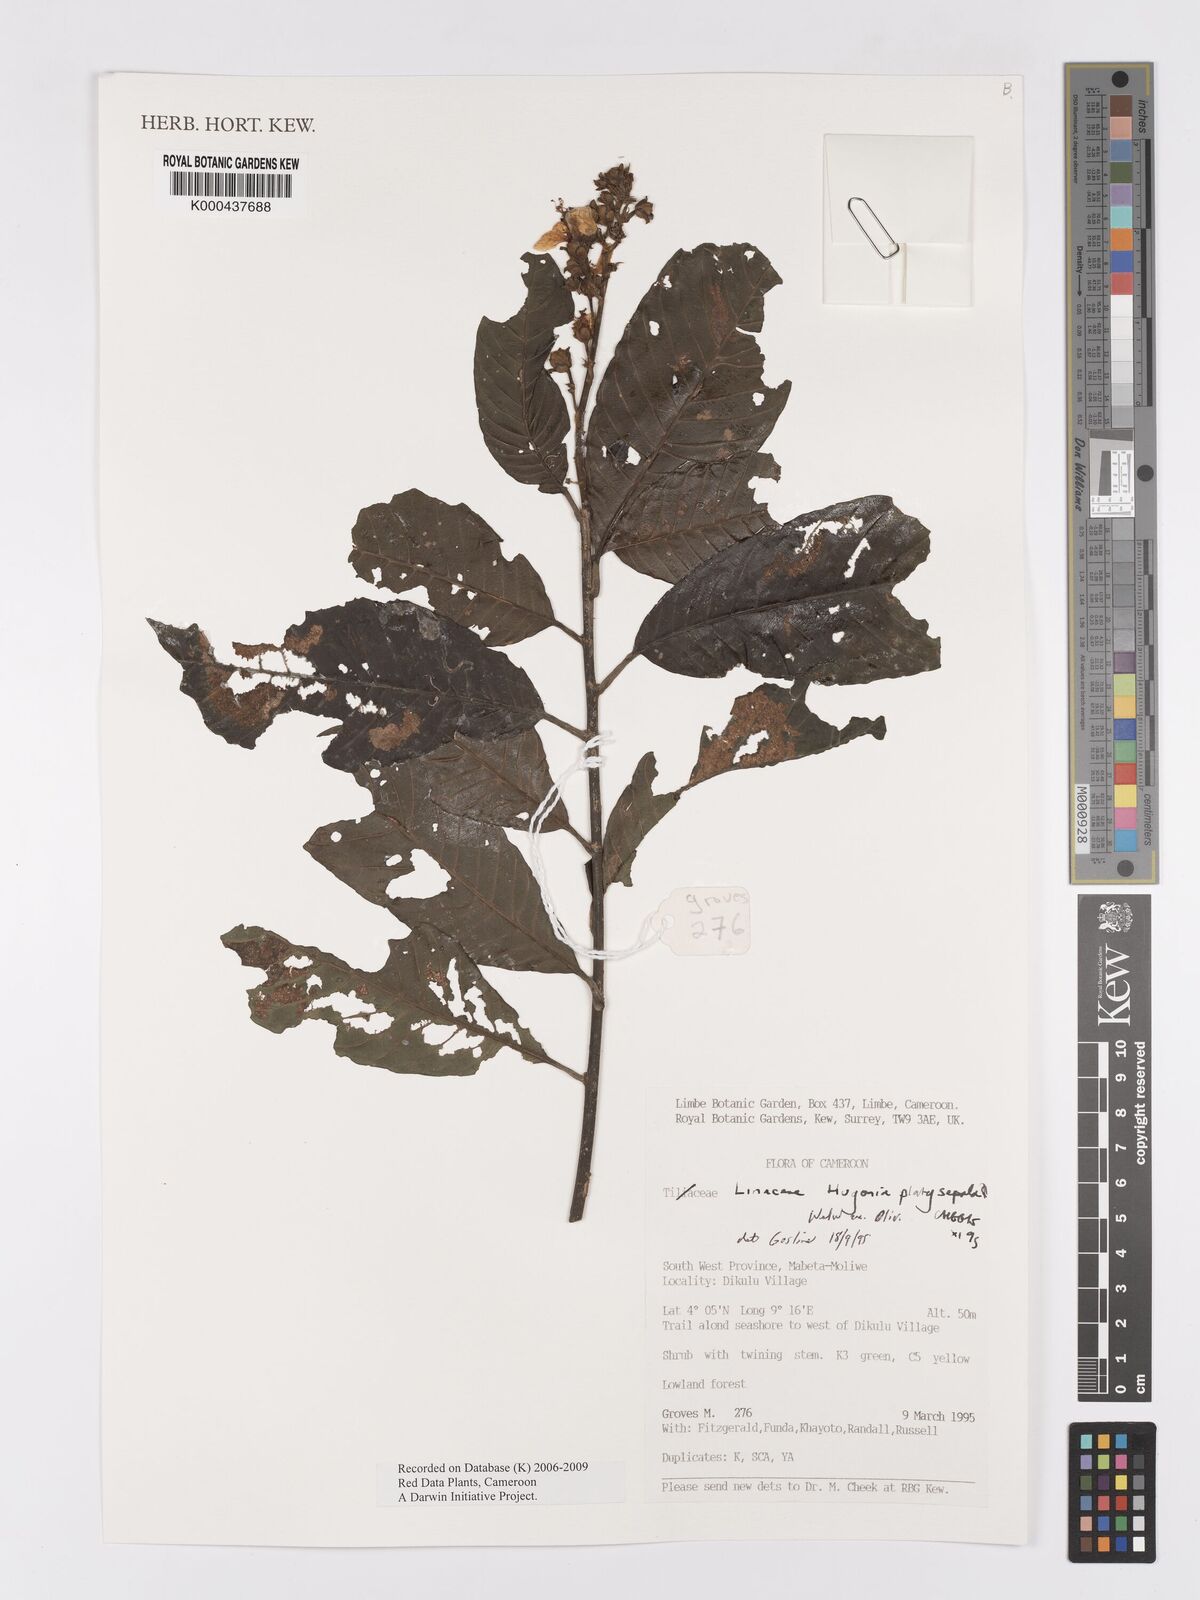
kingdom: Plantae
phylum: Tracheophyta
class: Magnoliopsida
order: Malpighiales
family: Linaceae
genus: Hugonia
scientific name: Hugonia platysepala
